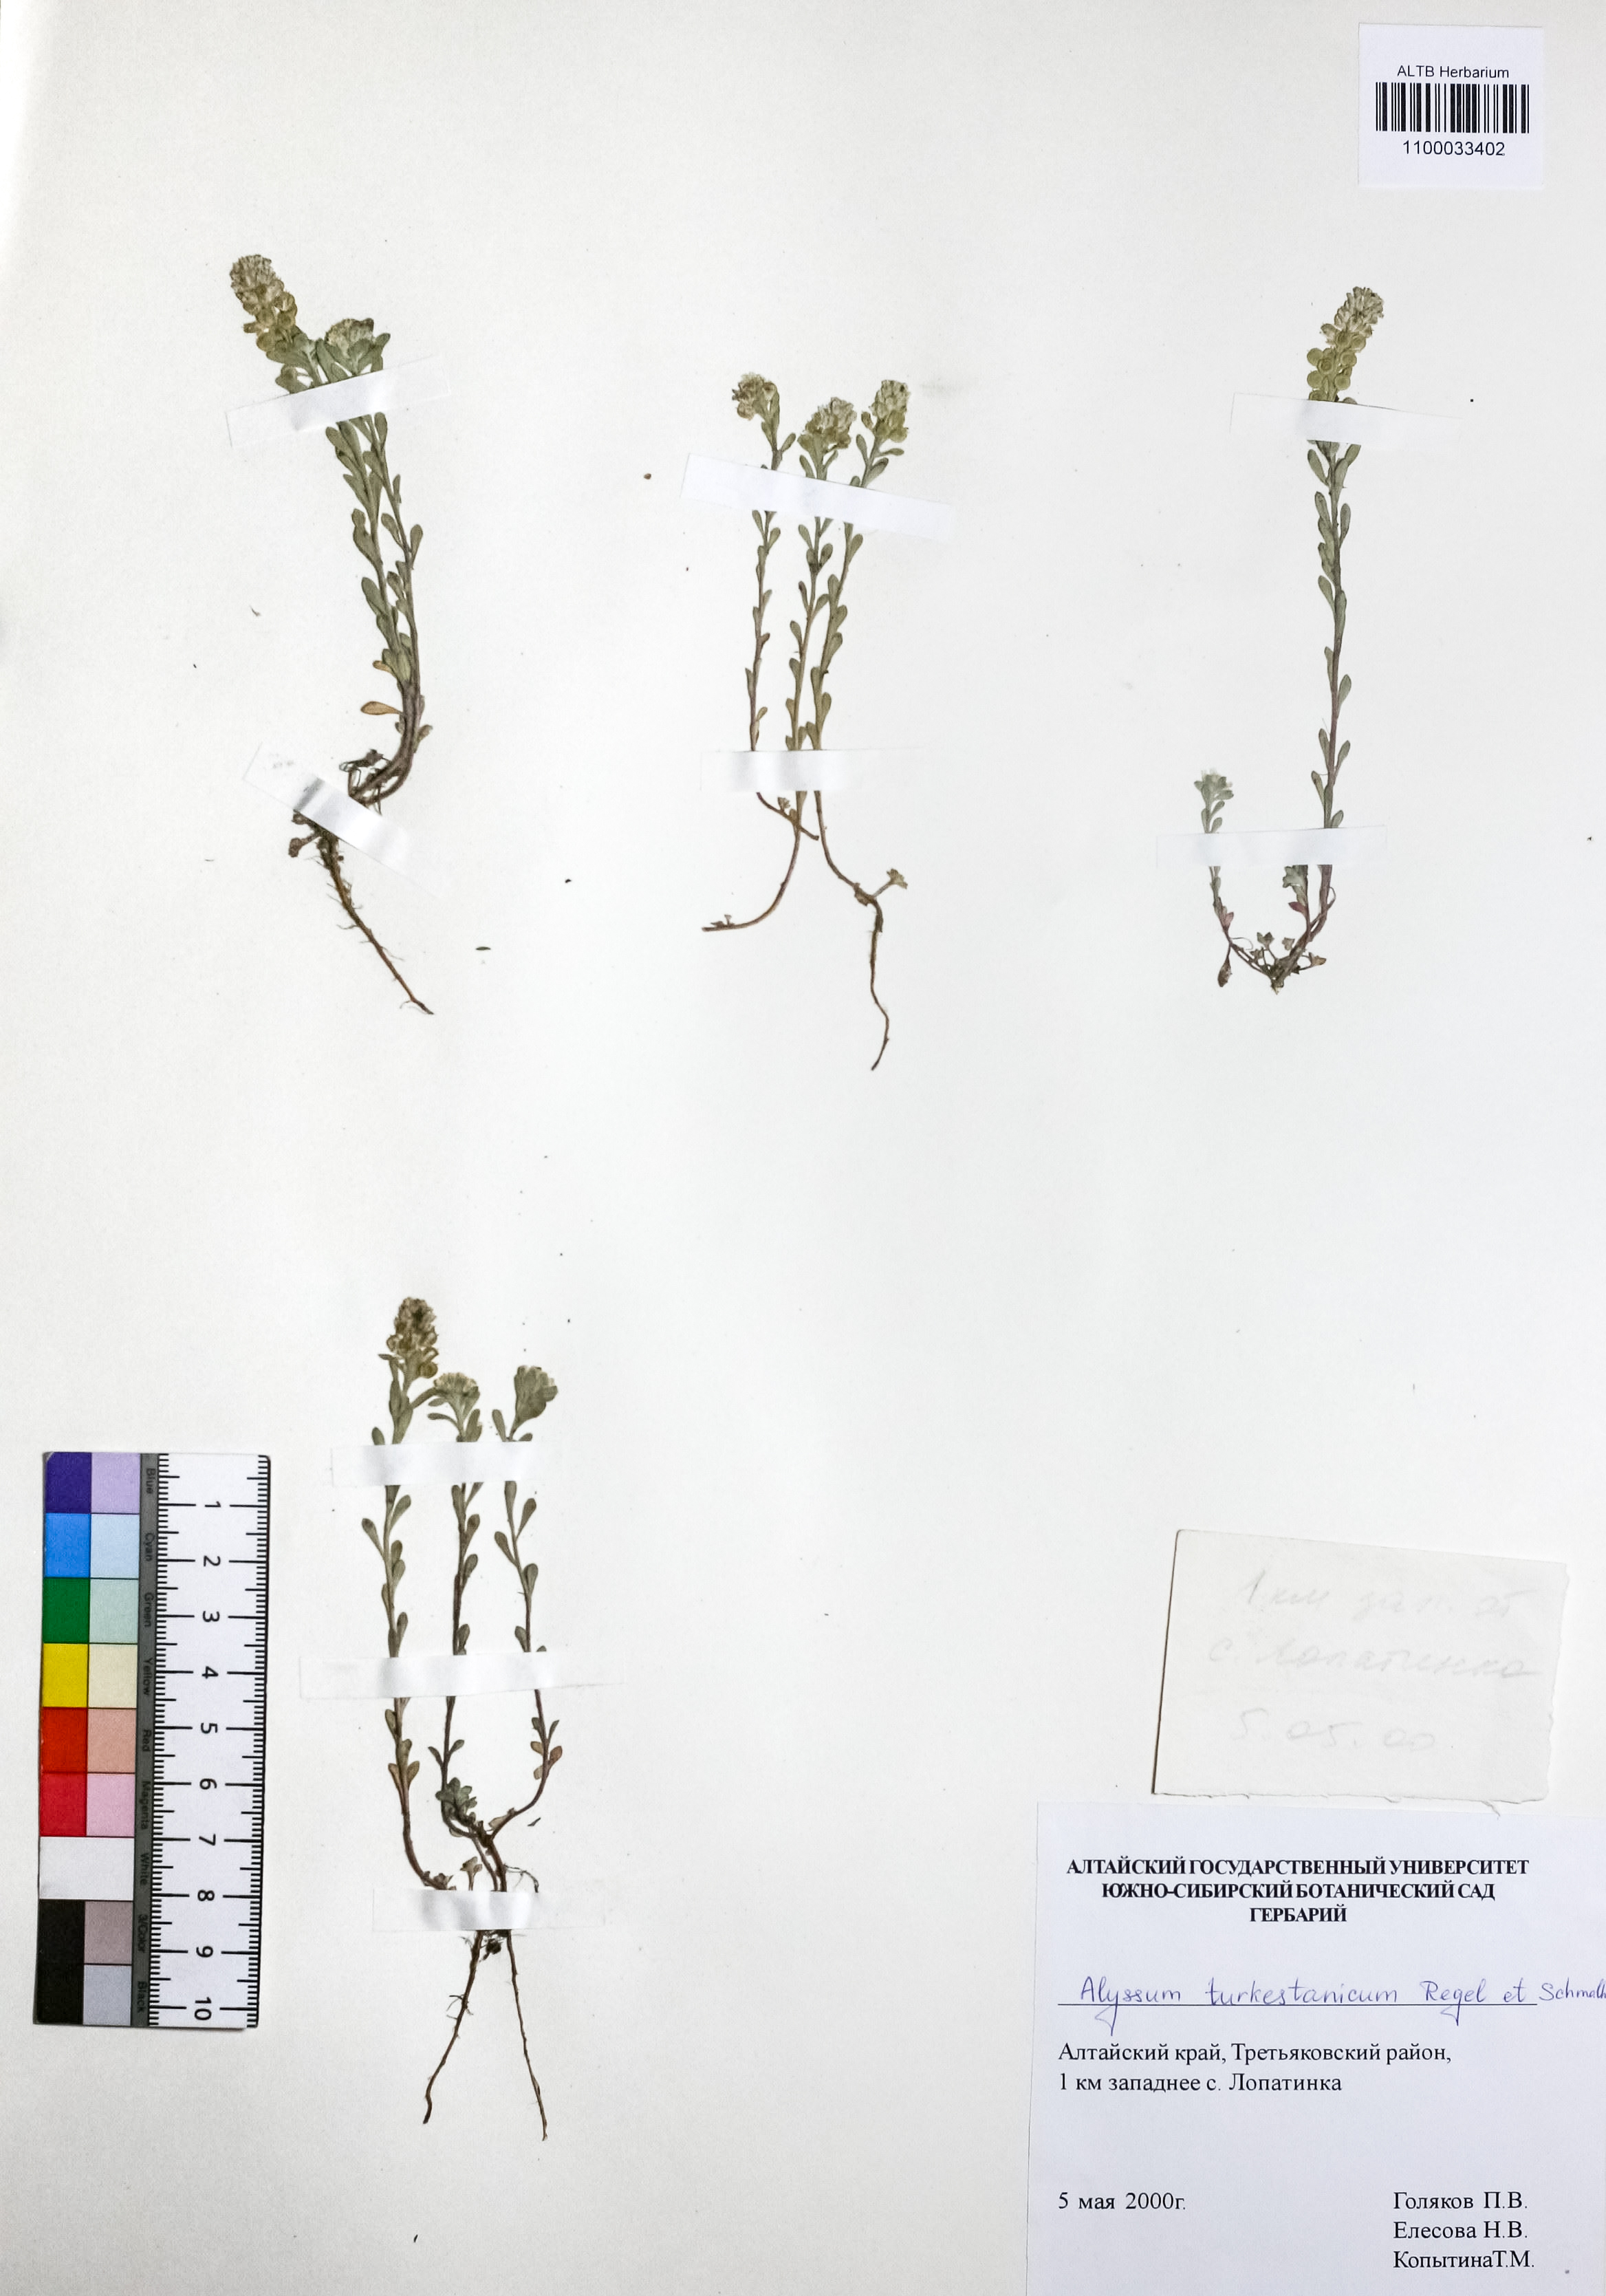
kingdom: Plantae
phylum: Tracheophyta
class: Magnoliopsida
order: Brassicales
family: Brassicaceae
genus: Alyssum
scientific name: Alyssum turkestanicum
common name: Desert alyssum
